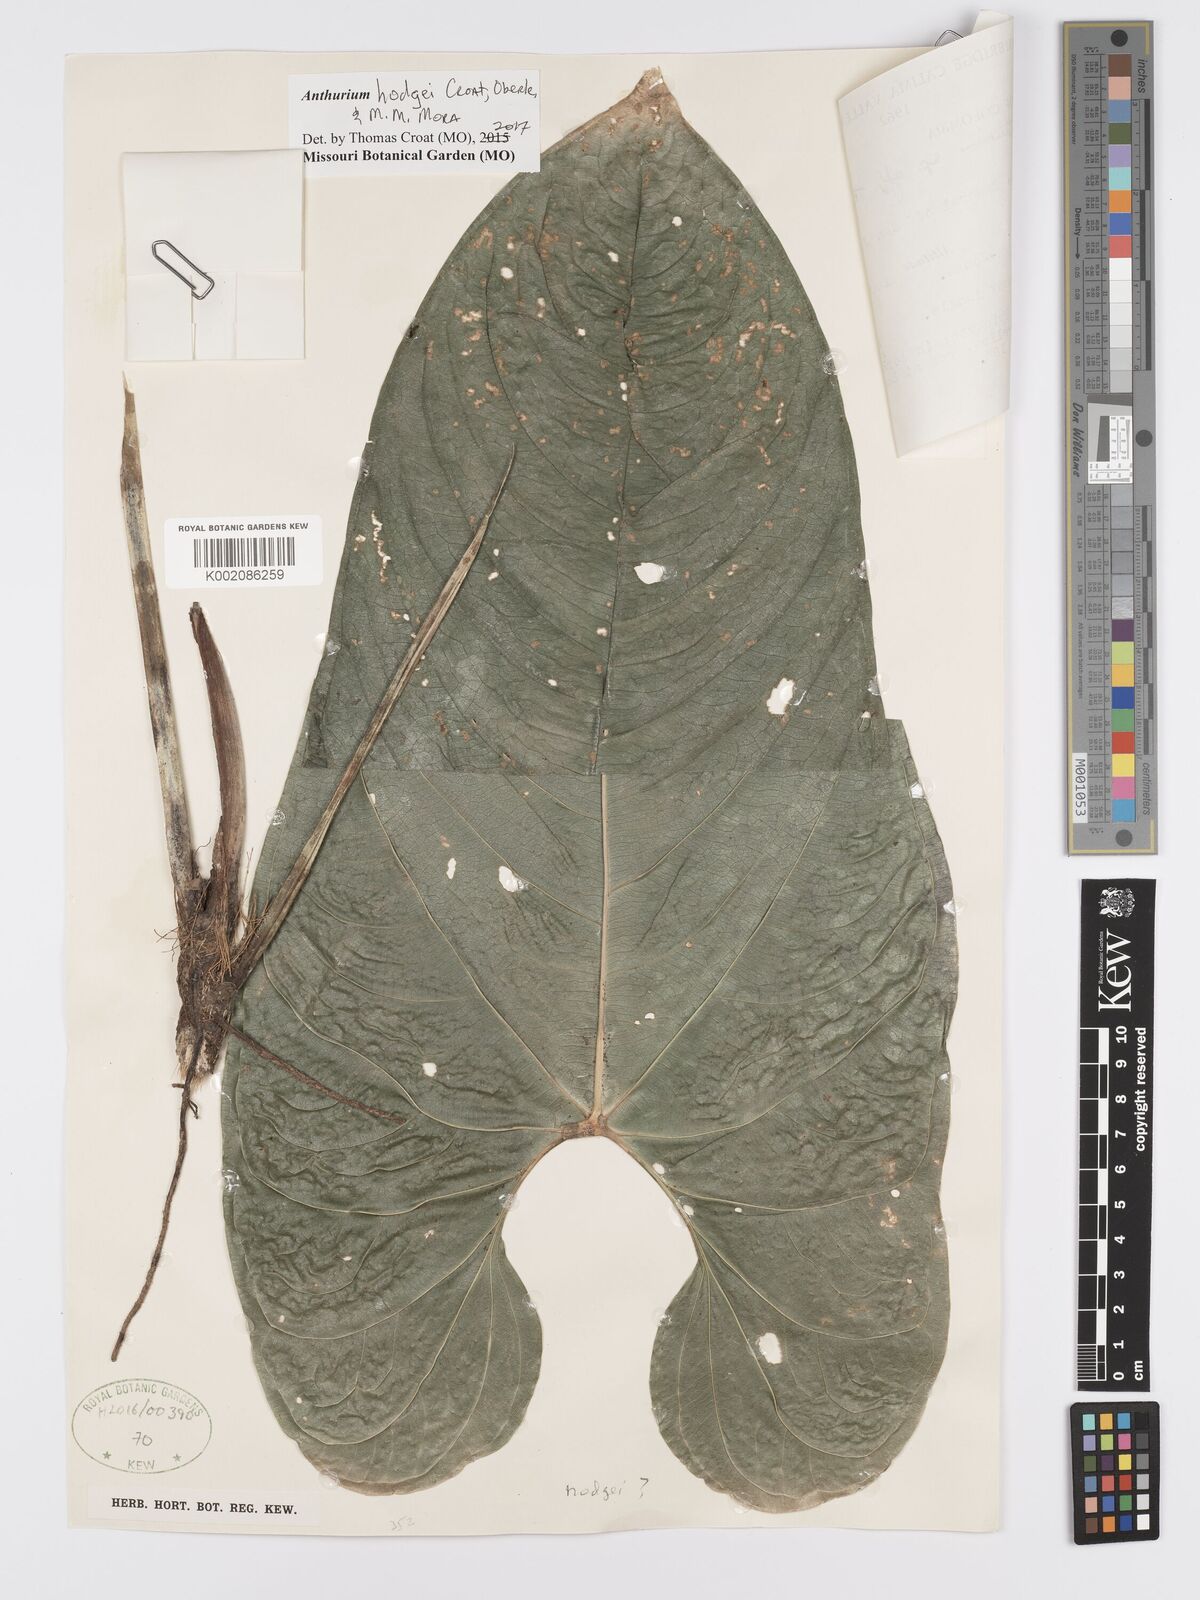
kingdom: Plantae
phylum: Tracheophyta
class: Liliopsida
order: Alismatales
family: Araceae
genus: Anthurium
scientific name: Anthurium hodgei
